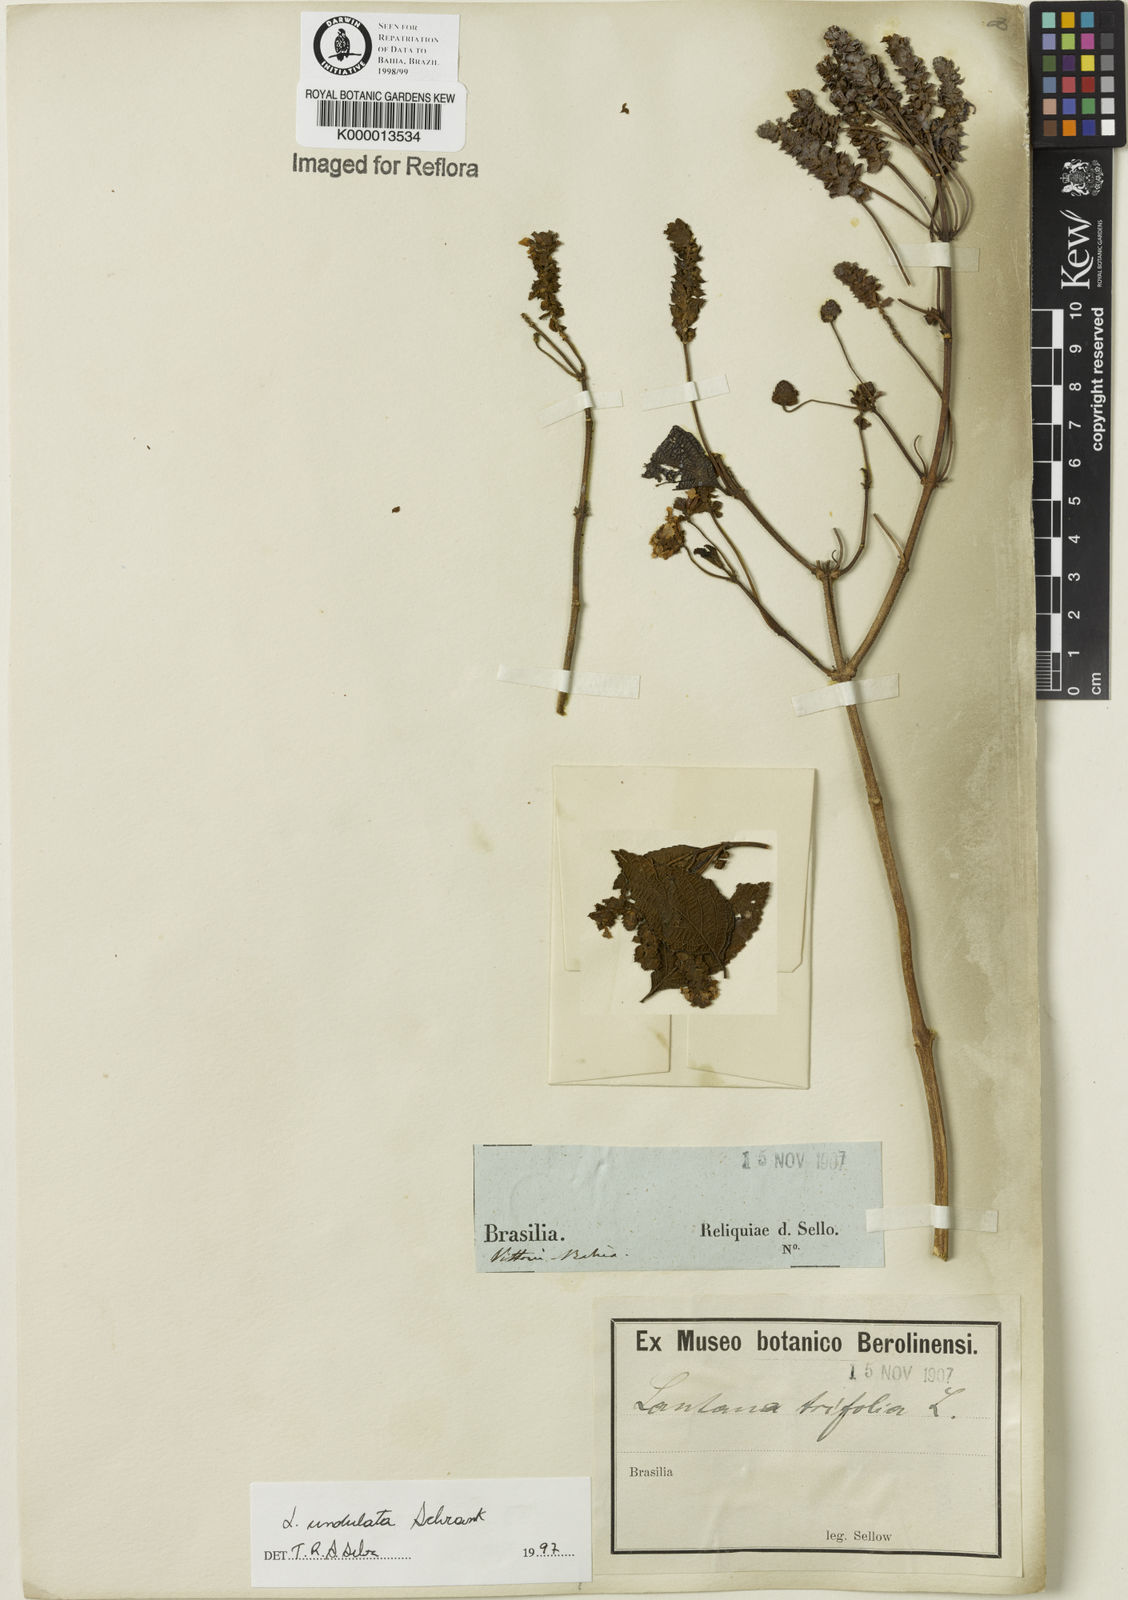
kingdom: Plantae
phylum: Tracheophyta
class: Magnoliopsida
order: Lamiales
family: Verbenaceae
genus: Lantana
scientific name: Lantana undulata
